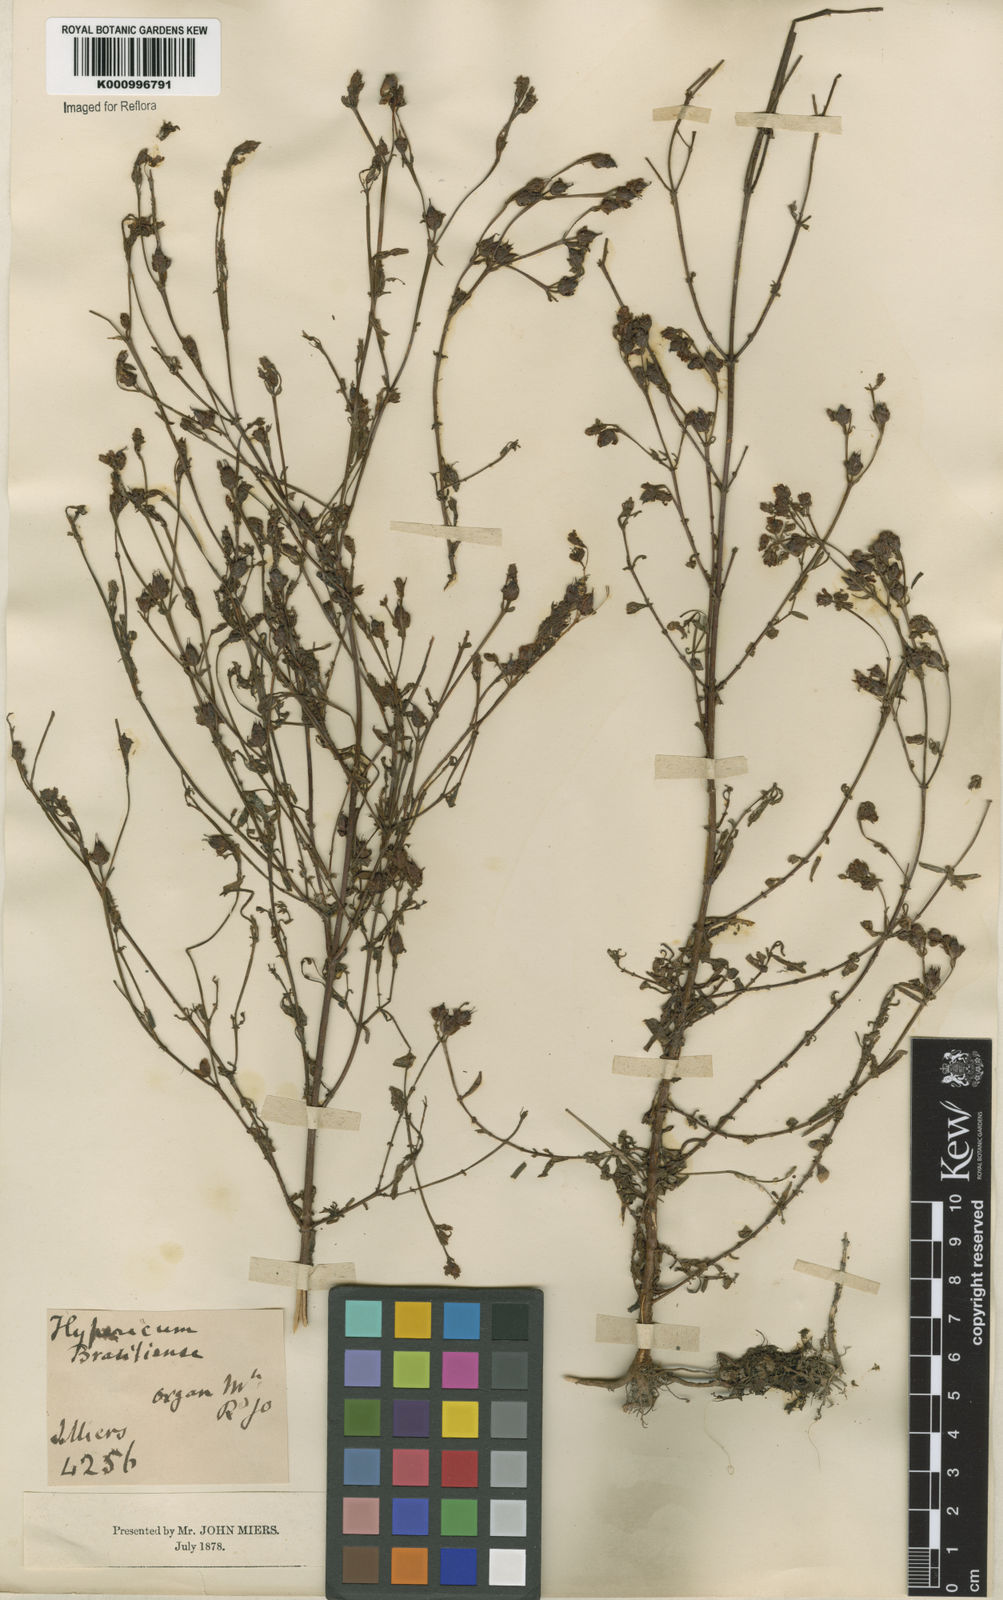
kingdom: Plantae
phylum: Tracheophyta
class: Magnoliopsida
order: Malpighiales
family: Hypericaceae
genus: Hypericum
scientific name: Hypericum brasiliense
